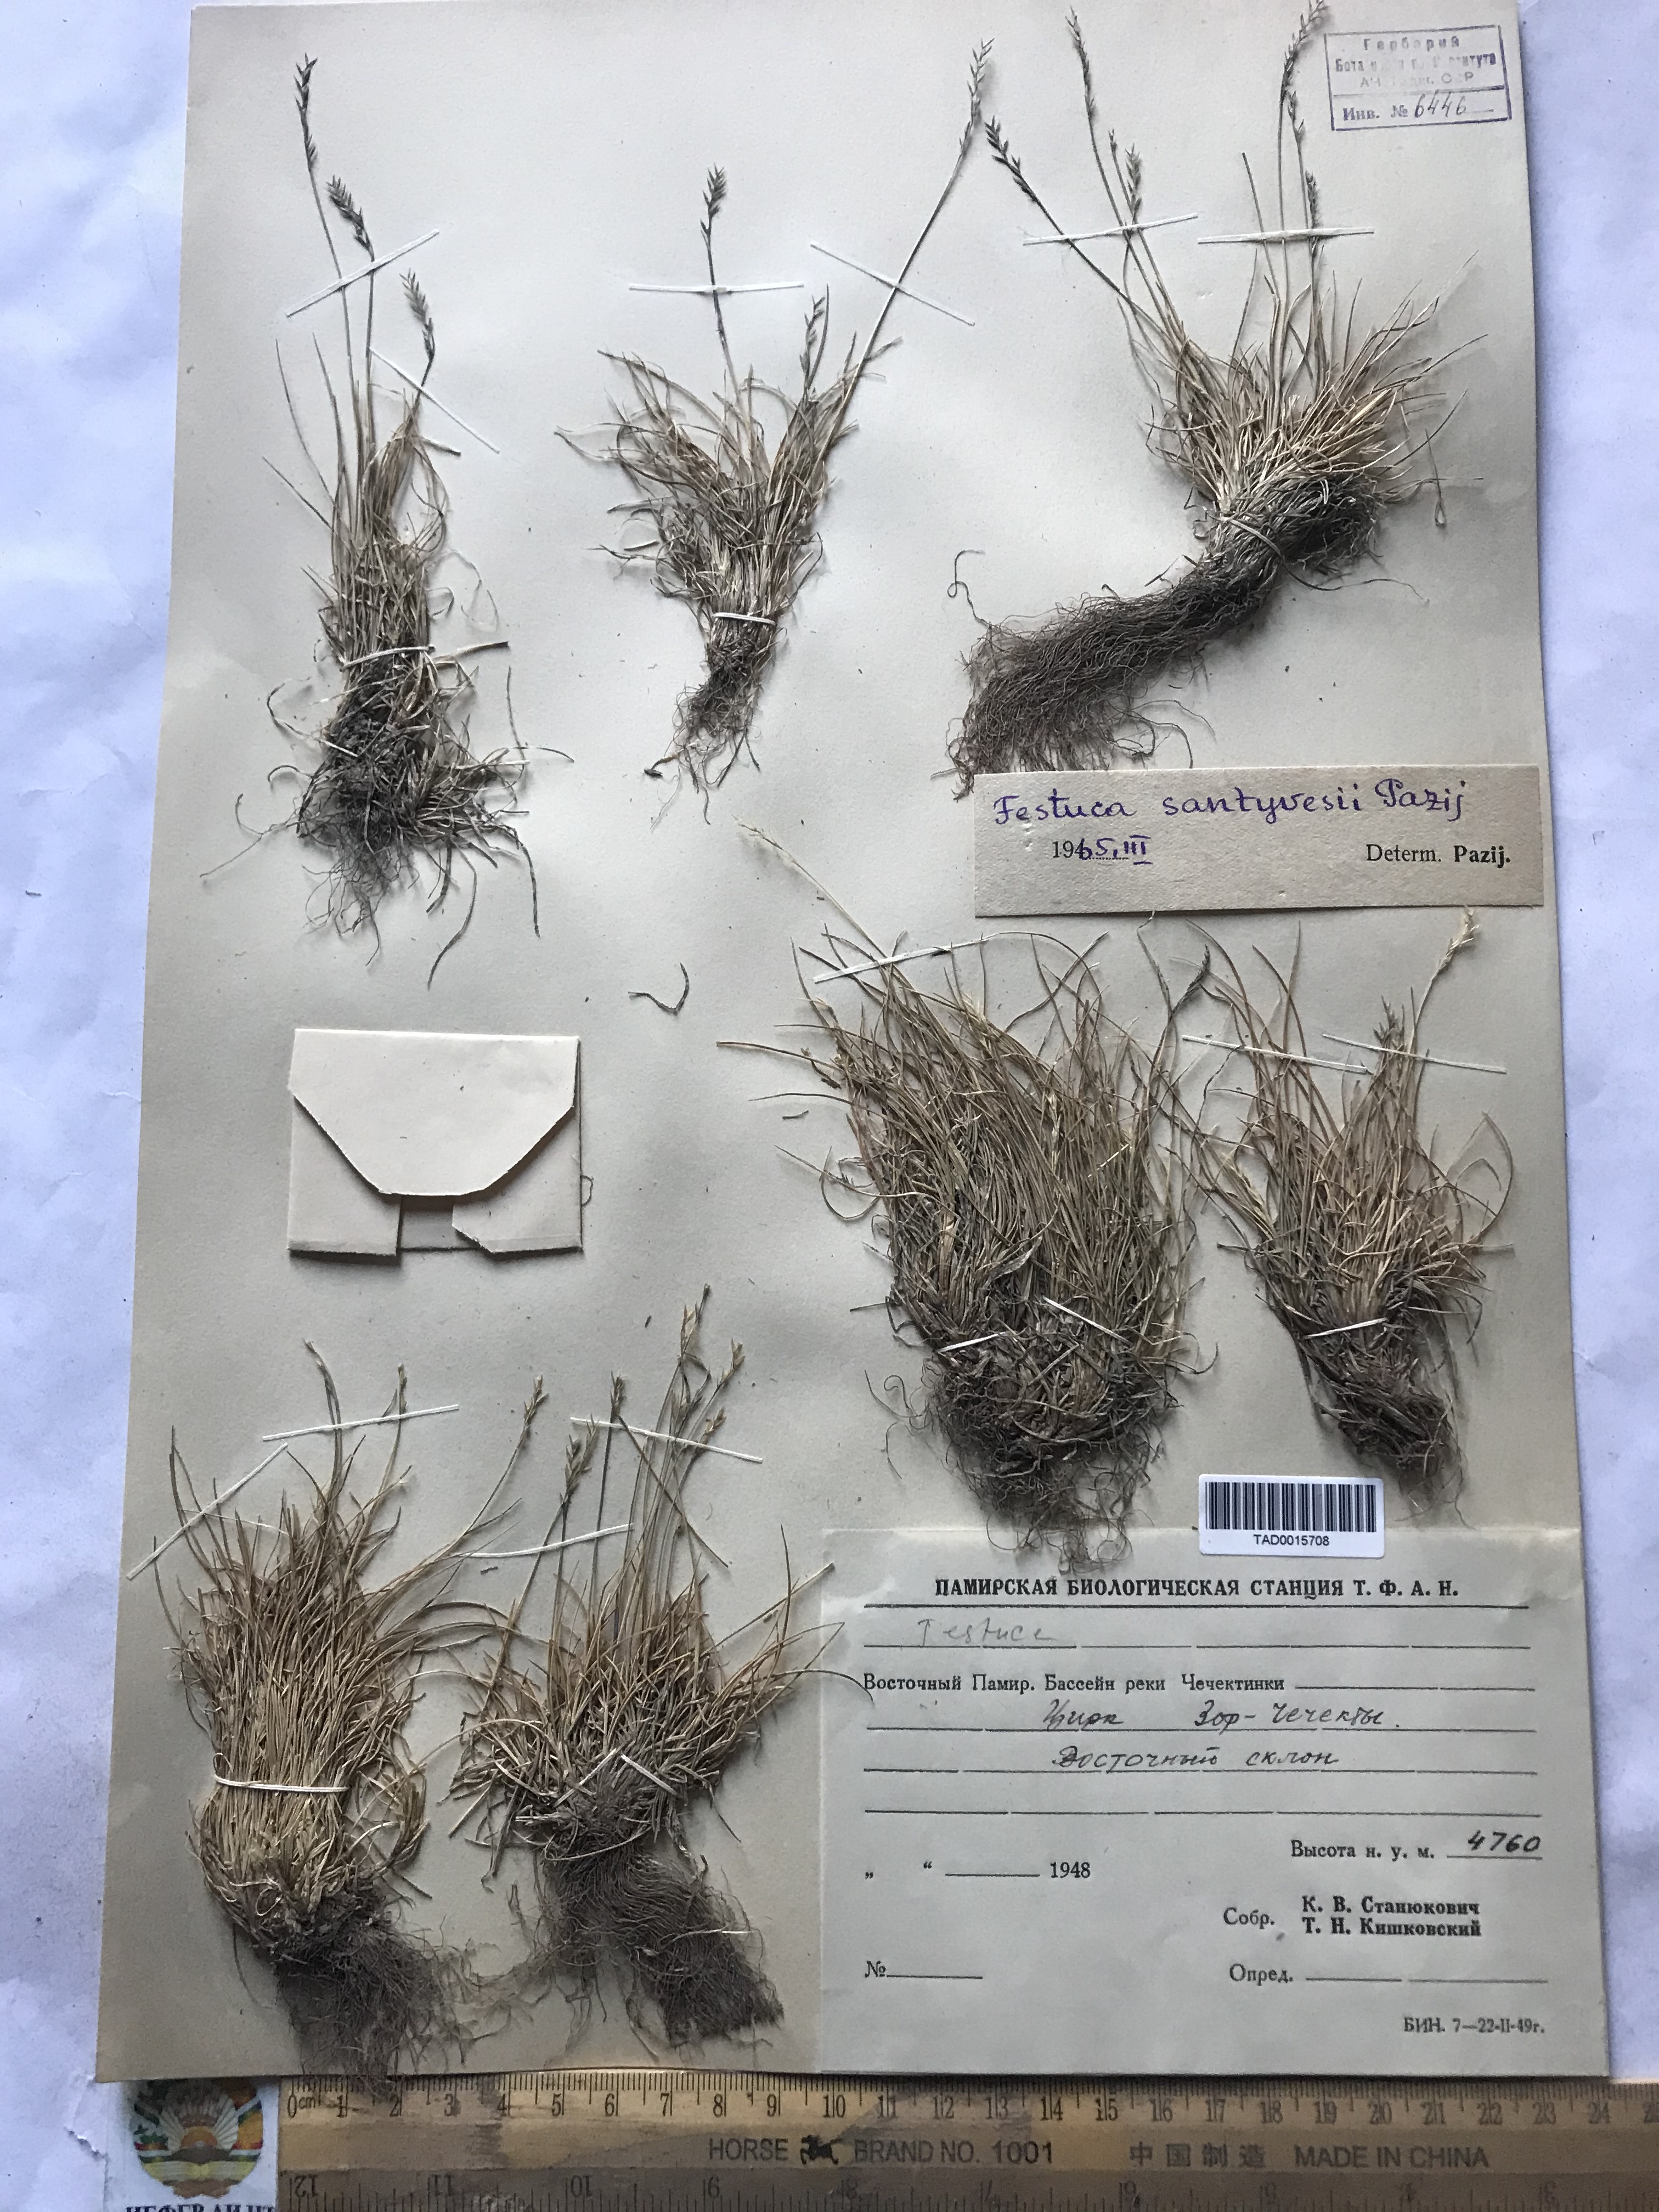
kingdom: Plantae
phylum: Tracheophyta
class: Liliopsida
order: Poales
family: Poaceae
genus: Festuca
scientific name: Festuca coelestis
